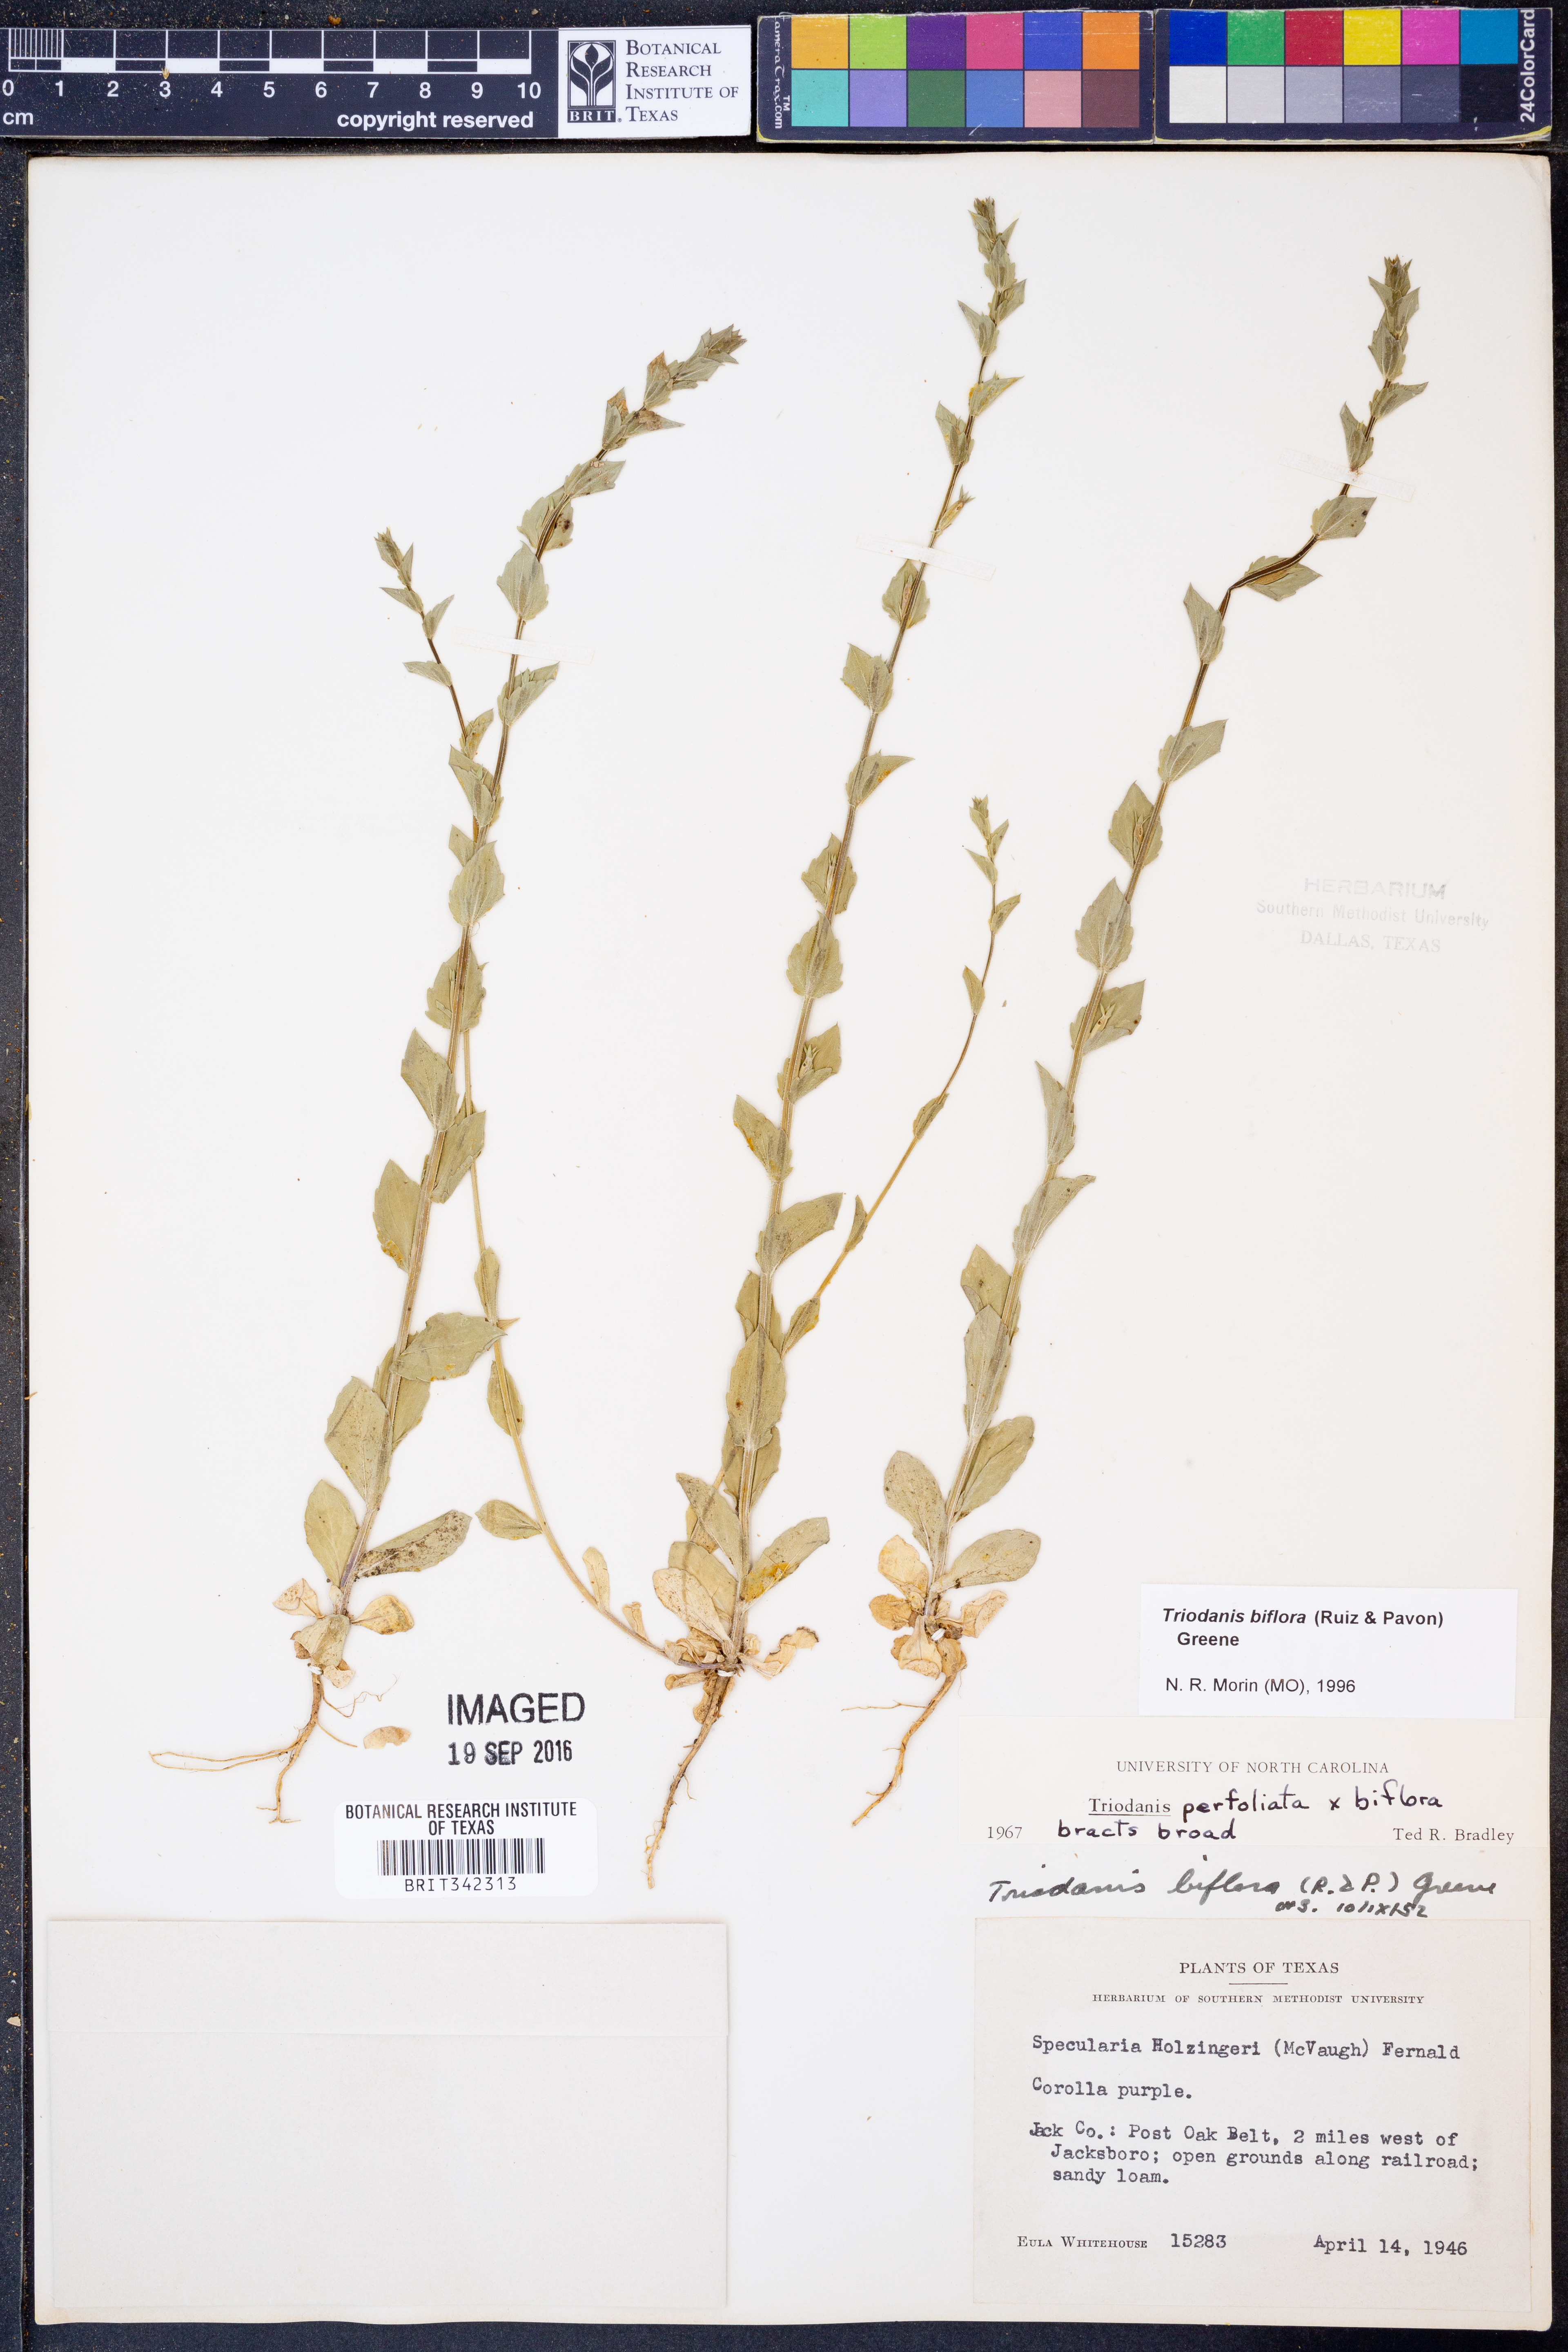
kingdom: Plantae
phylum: Tracheophyta
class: Magnoliopsida
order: Asterales
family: Campanulaceae
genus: Triodanis
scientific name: Triodanis perfoliata
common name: Clasping venus' looking-glass
